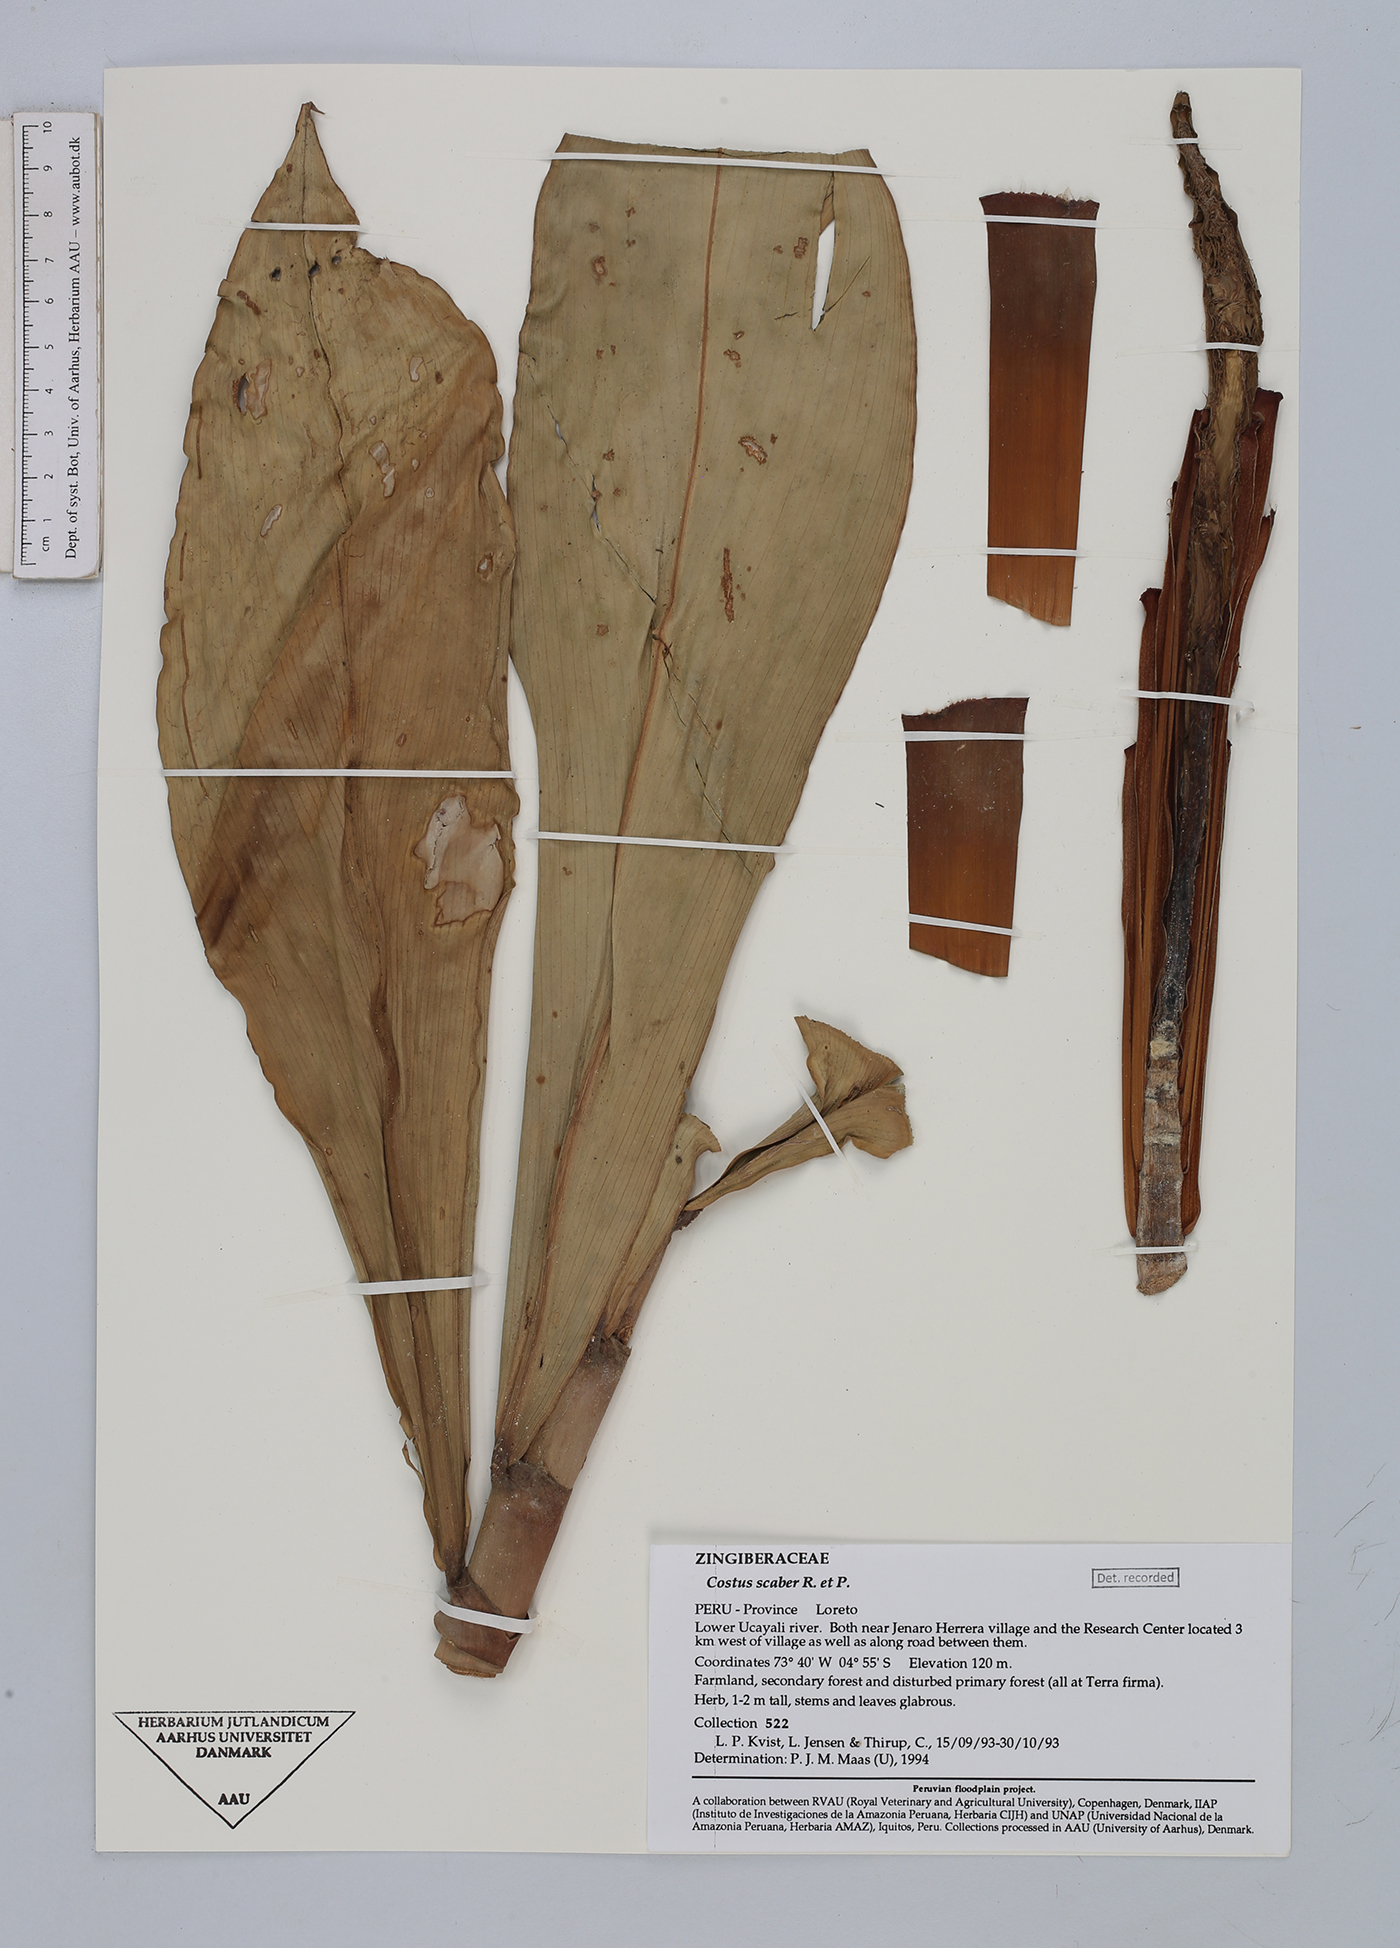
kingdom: Plantae
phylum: Tracheophyta
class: Liliopsida
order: Zingiberales
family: Costaceae
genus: Costus
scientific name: Costus scaber
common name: Spiral head ginger
